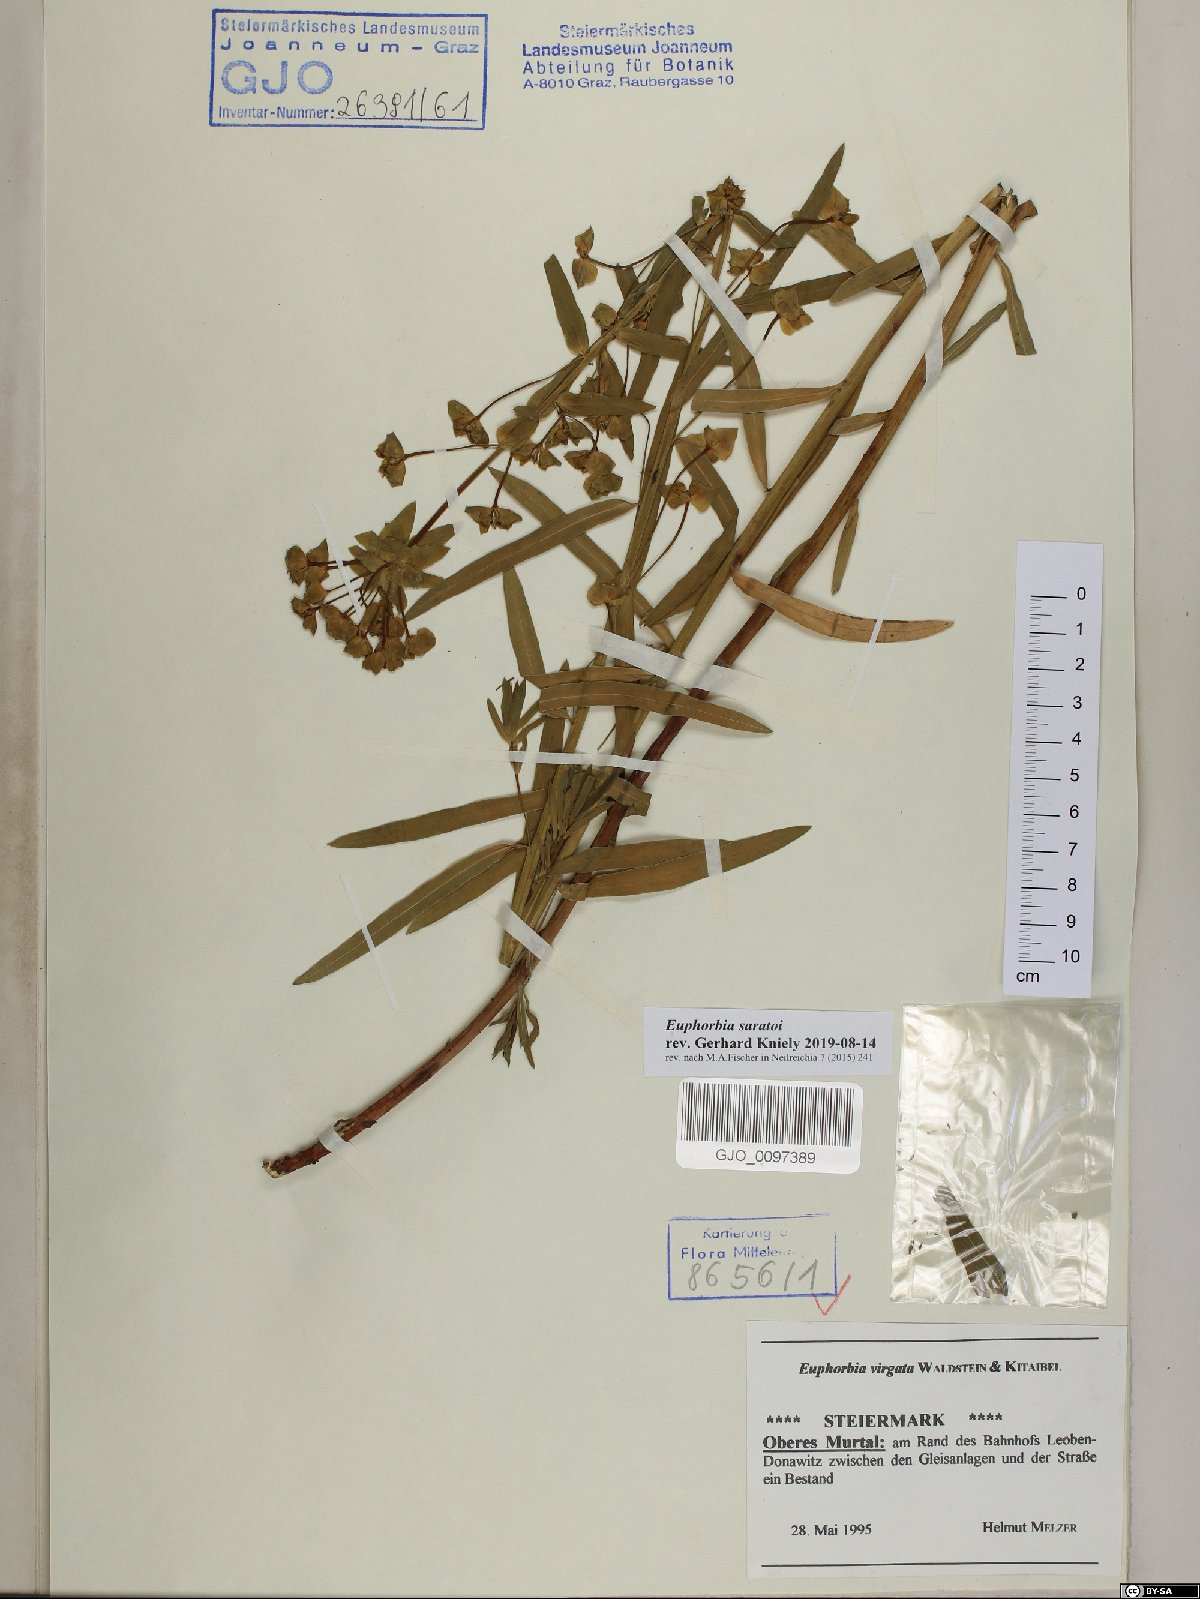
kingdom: Plantae
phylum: Tracheophyta
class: Magnoliopsida
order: Malpighiales
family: Euphorbiaceae
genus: Euphorbia
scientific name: Euphorbia saratoi
